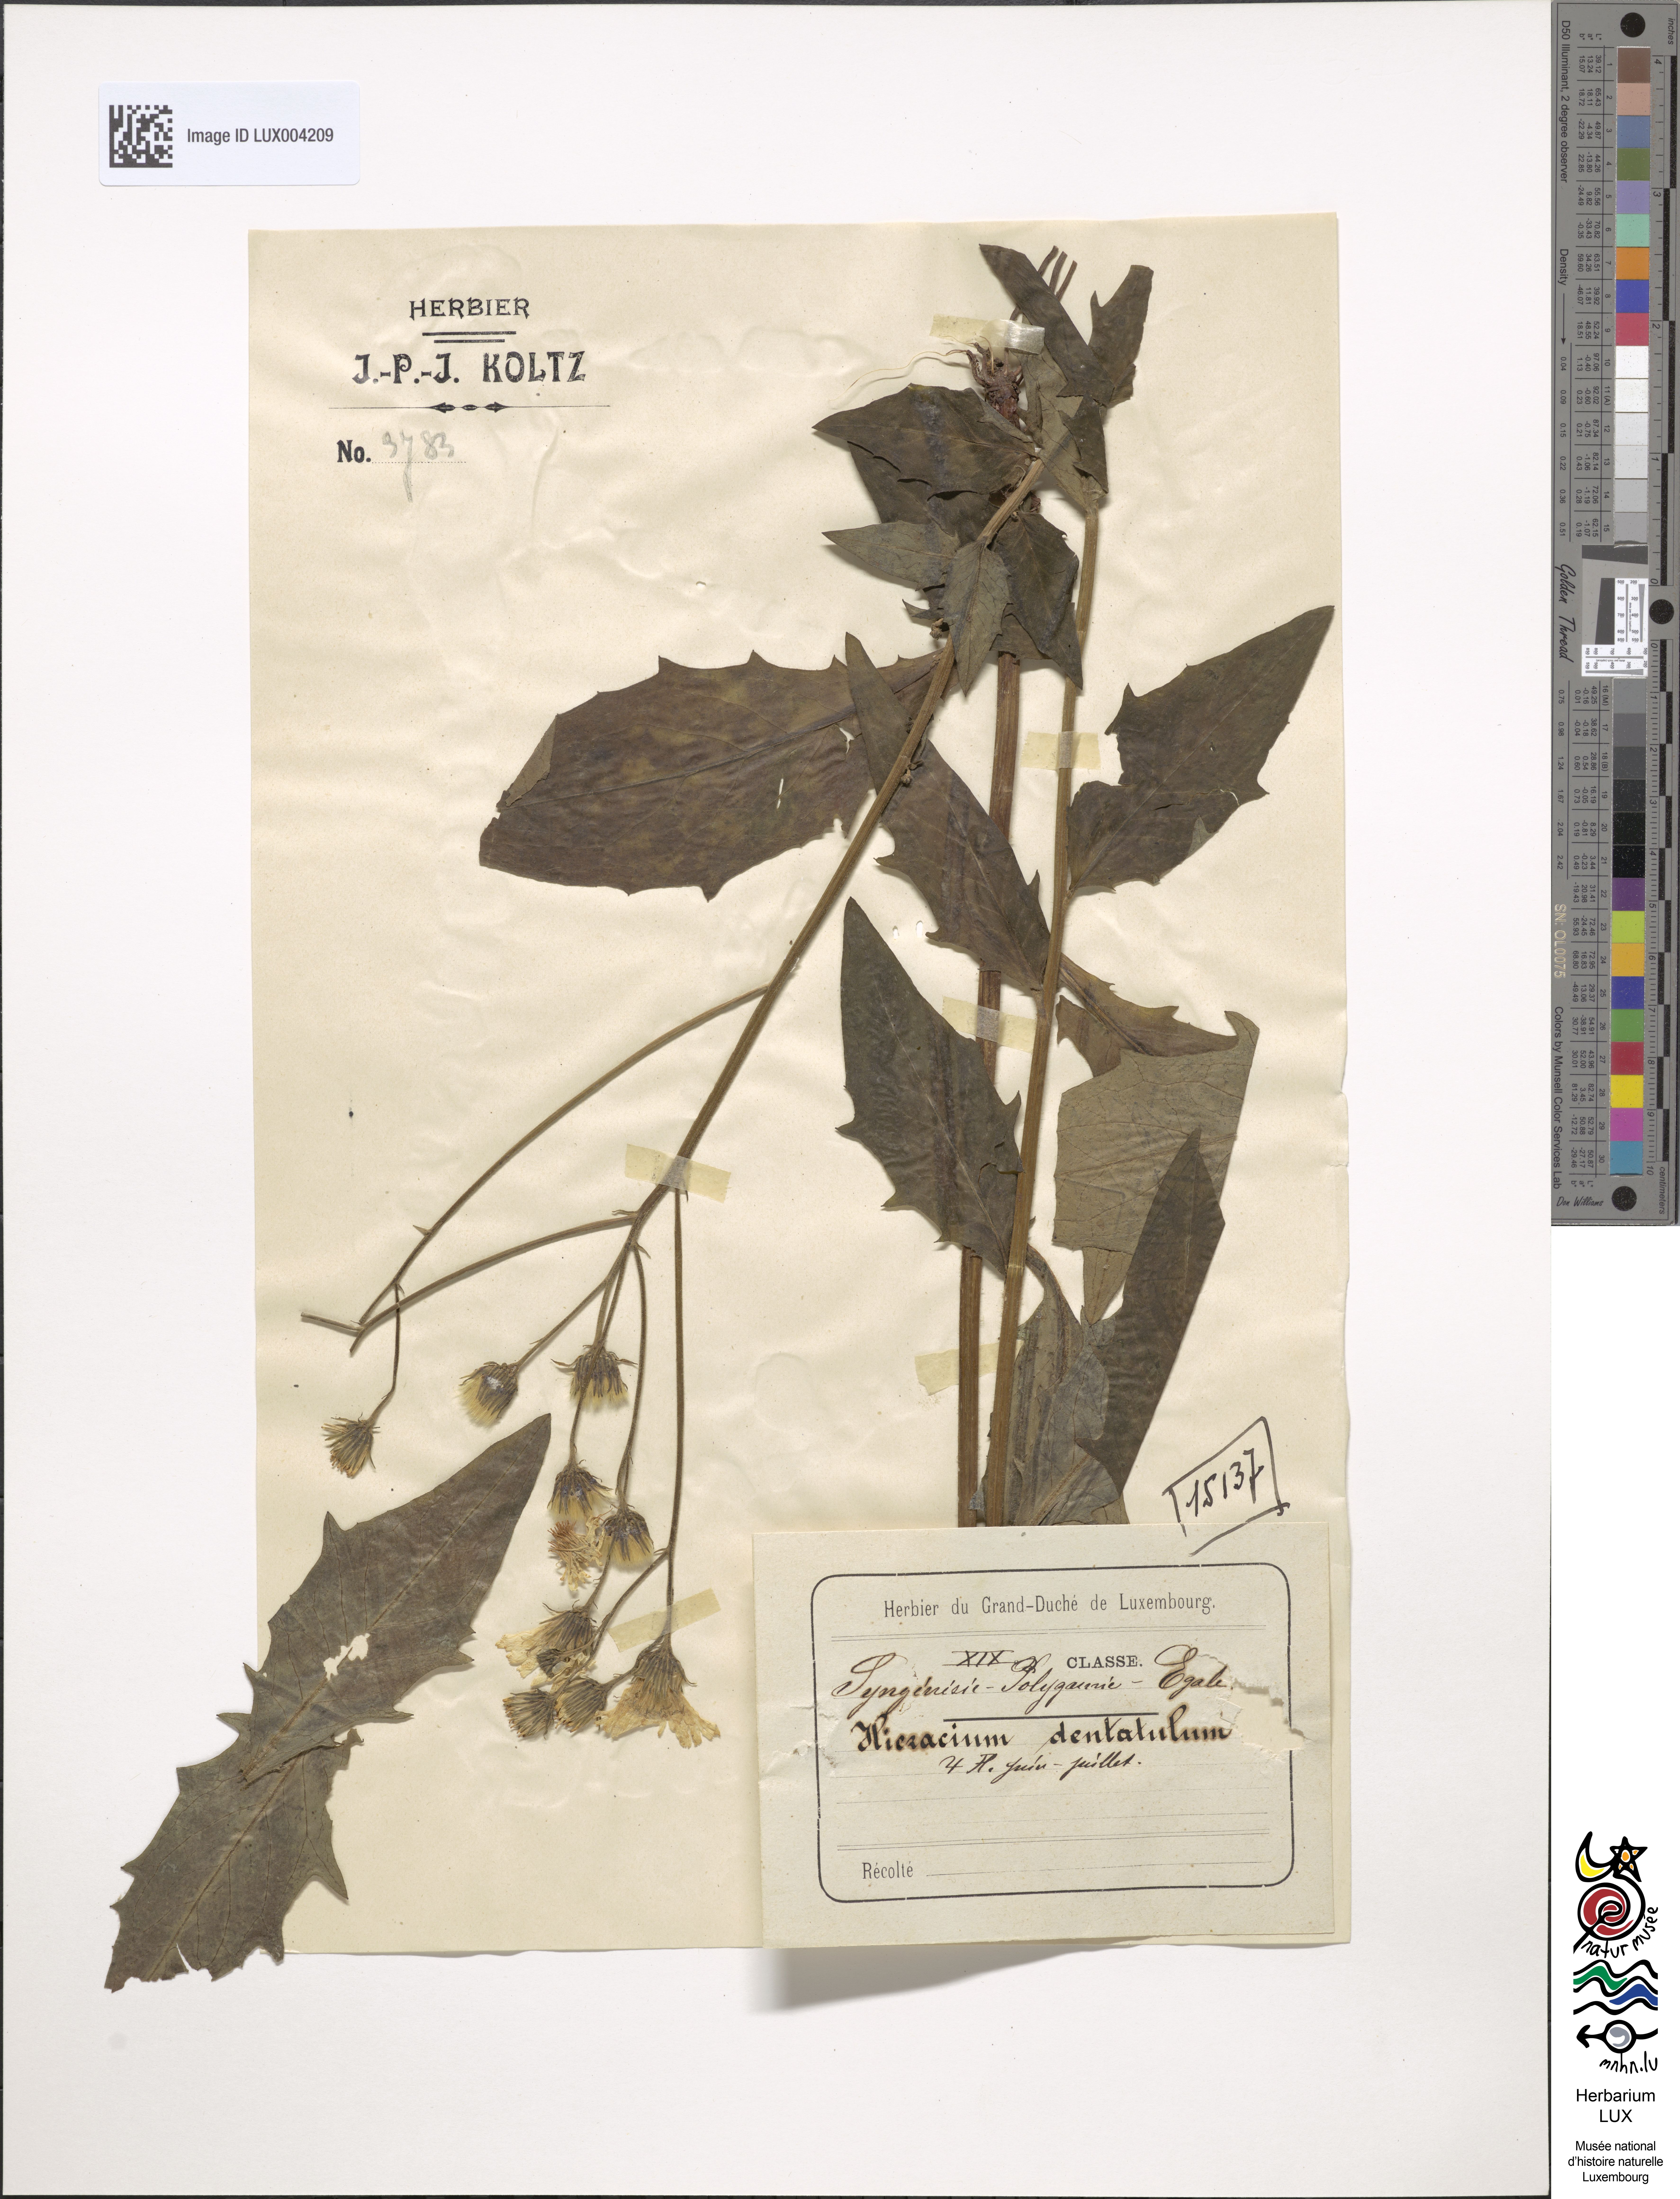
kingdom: Plantae
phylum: Tracheophyta
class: Magnoliopsida
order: Asterales
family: Asteraceae
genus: Hieracium
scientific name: Hieracium
